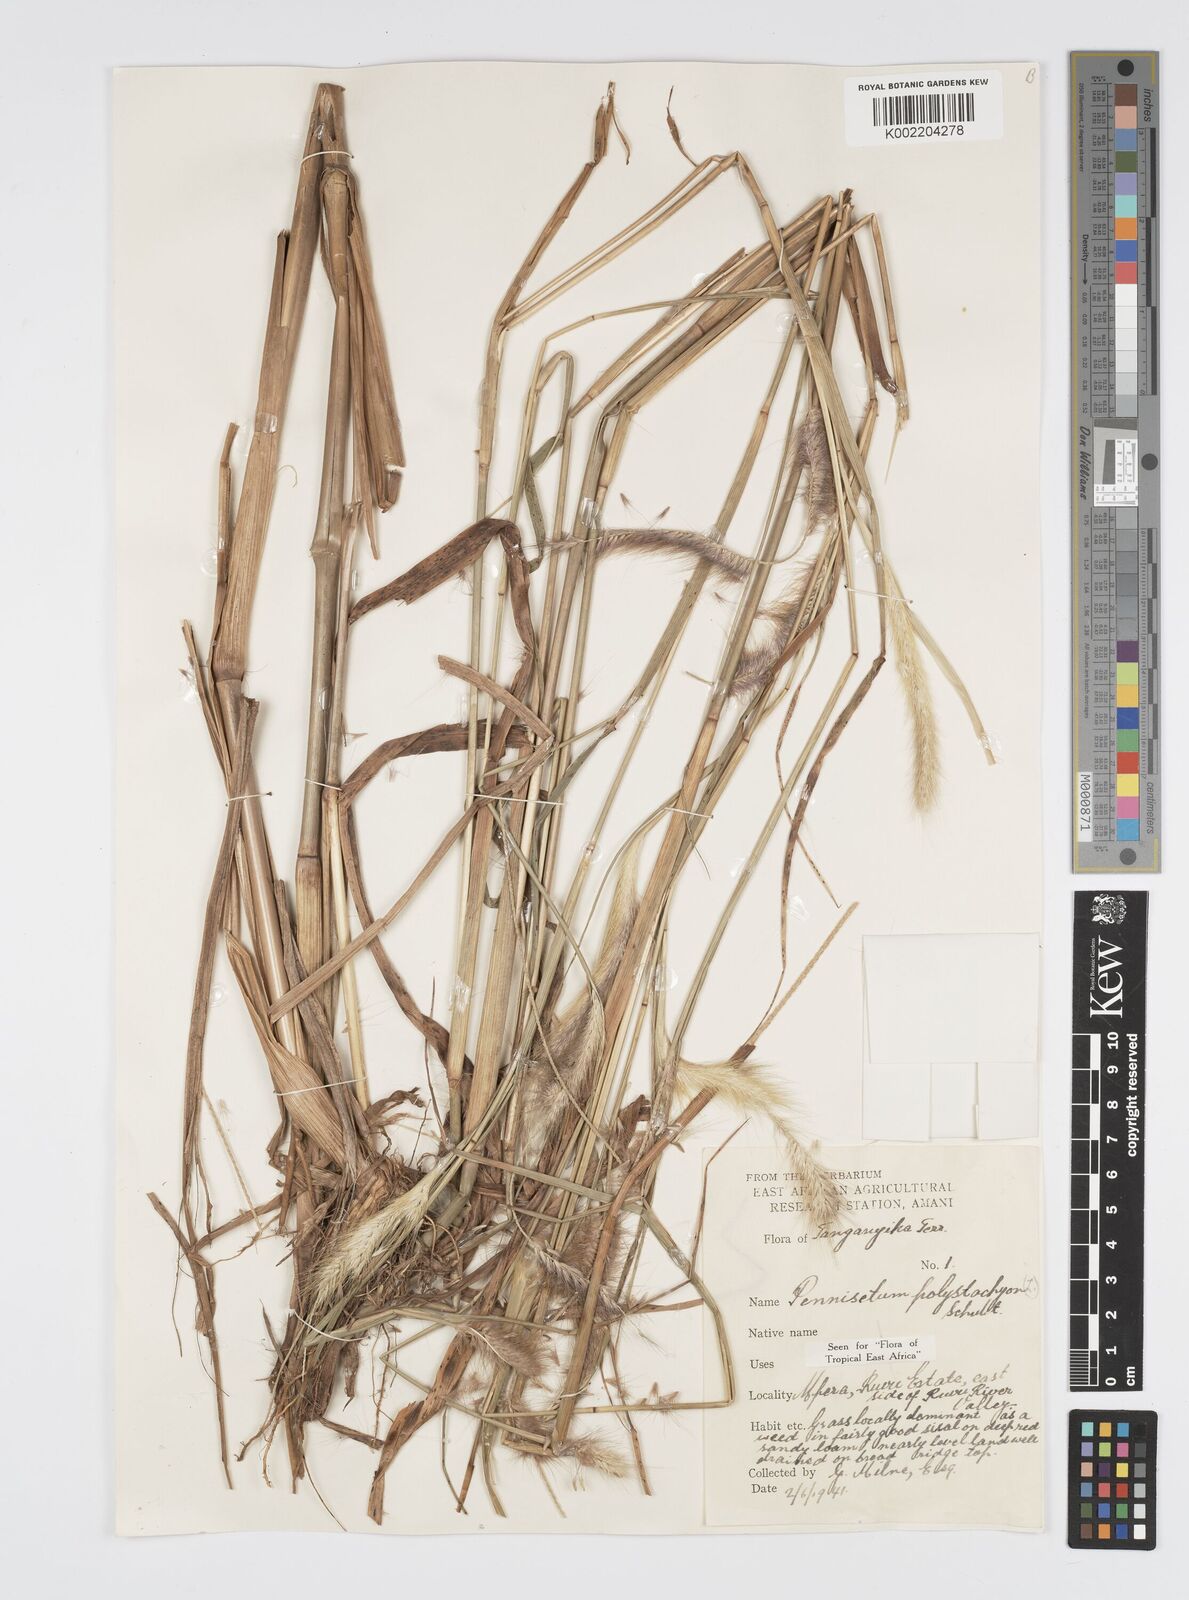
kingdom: Plantae
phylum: Tracheophyta
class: Liliopsida
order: Poales
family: Poaceae
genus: Setaria
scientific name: Setaria parviflora
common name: Knotroot bristle-grass
